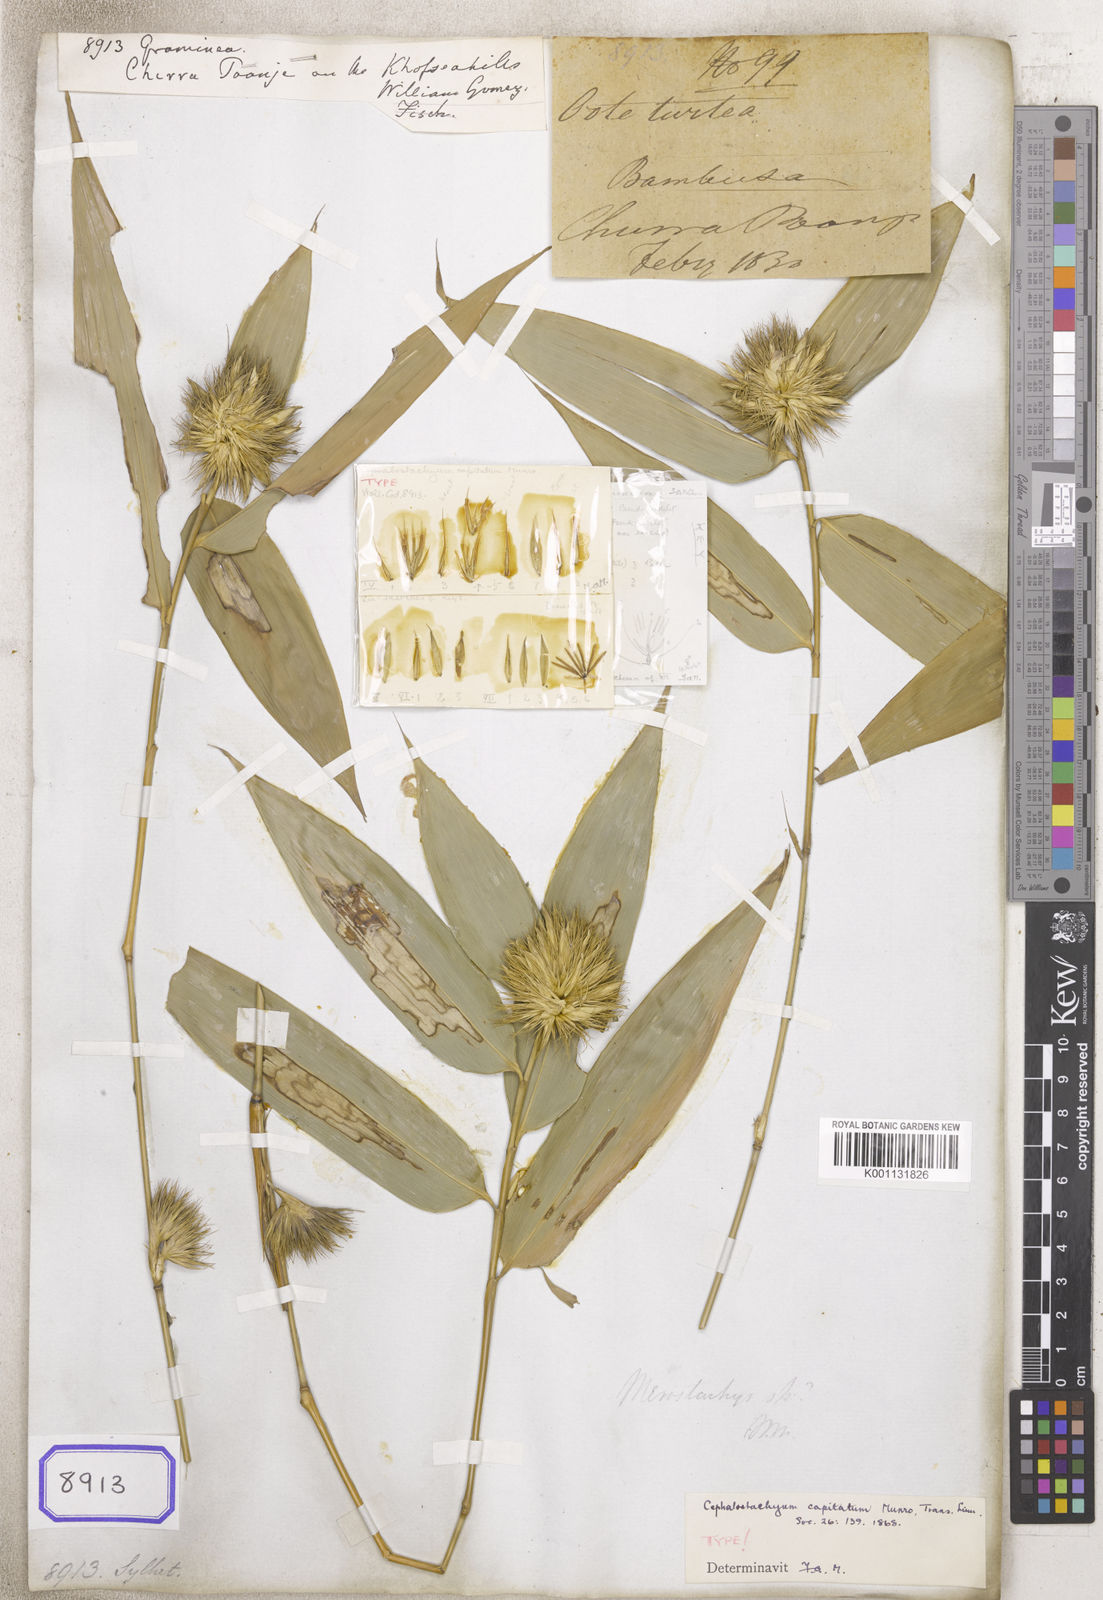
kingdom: Plantae
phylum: Tracheophyta
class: Liliopsida
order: Poales
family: Poaceae
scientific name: Poaceae
